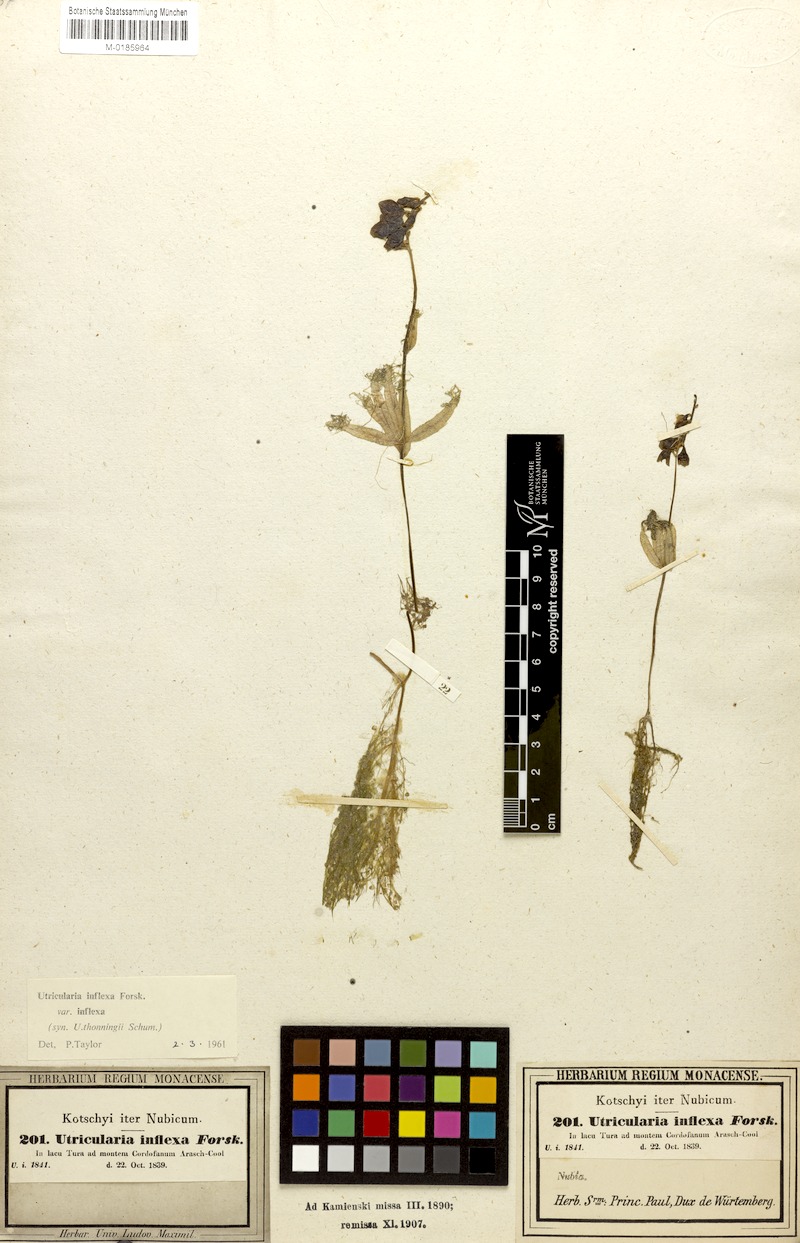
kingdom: Plantae
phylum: Tracheophyta
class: Magnoliopsida
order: Lamiales
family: Lentibulariaceae
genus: Utricularia
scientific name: Utricularia inflexa
